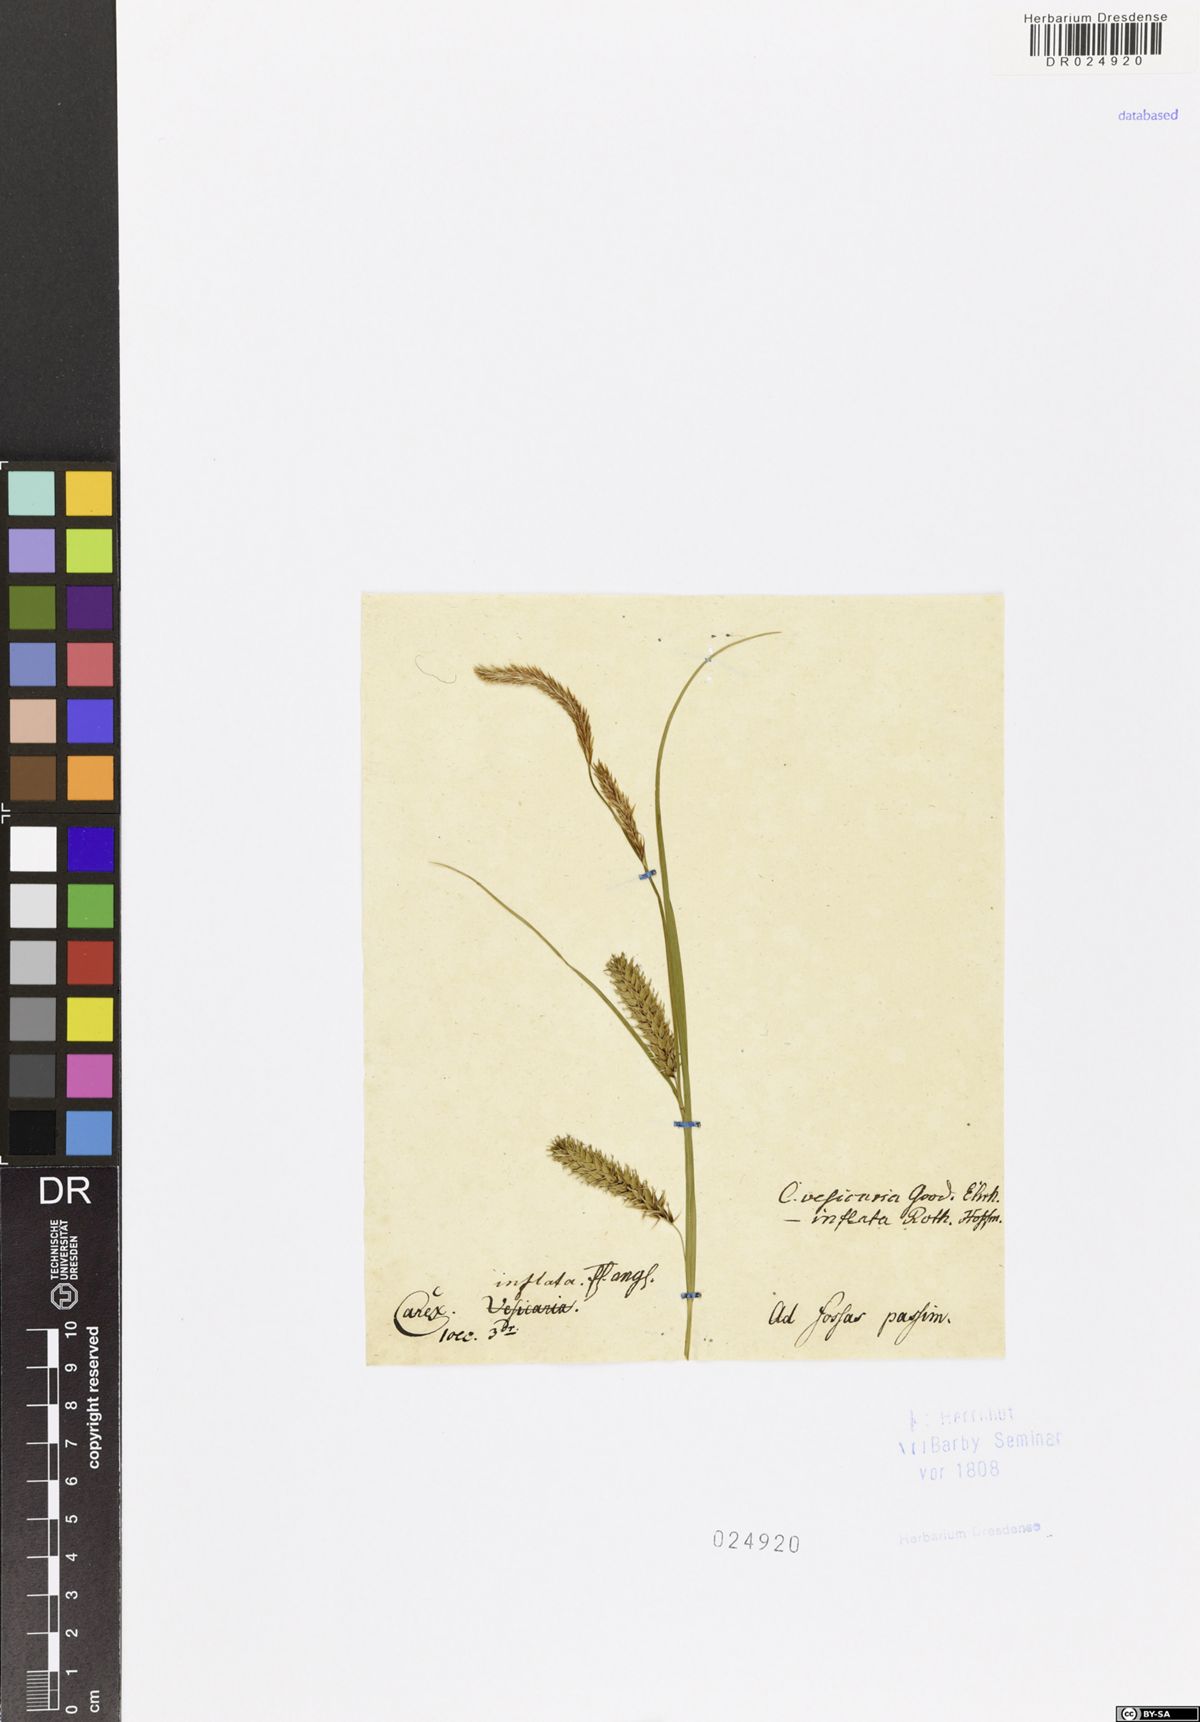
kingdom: Plantae
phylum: Tracheophyta
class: Liliopsida
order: Poales
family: Cyperaceae
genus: Carex
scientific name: Carex vesicaria
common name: Bladder-sedge
